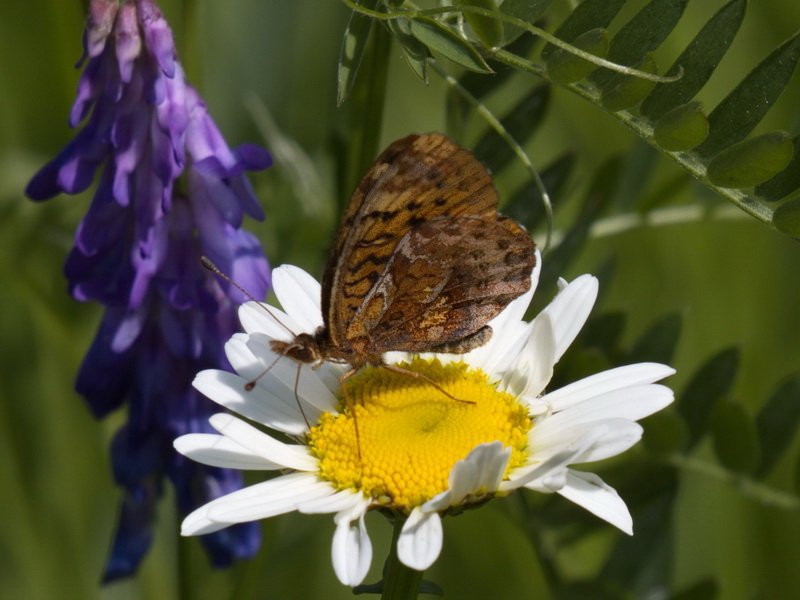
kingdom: Animalia
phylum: Arthropoda
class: Insecta
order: Lepidoptera
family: Nymphalidae
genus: Clossiana
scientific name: Clossiana toddi
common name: Meadow Fritillary
